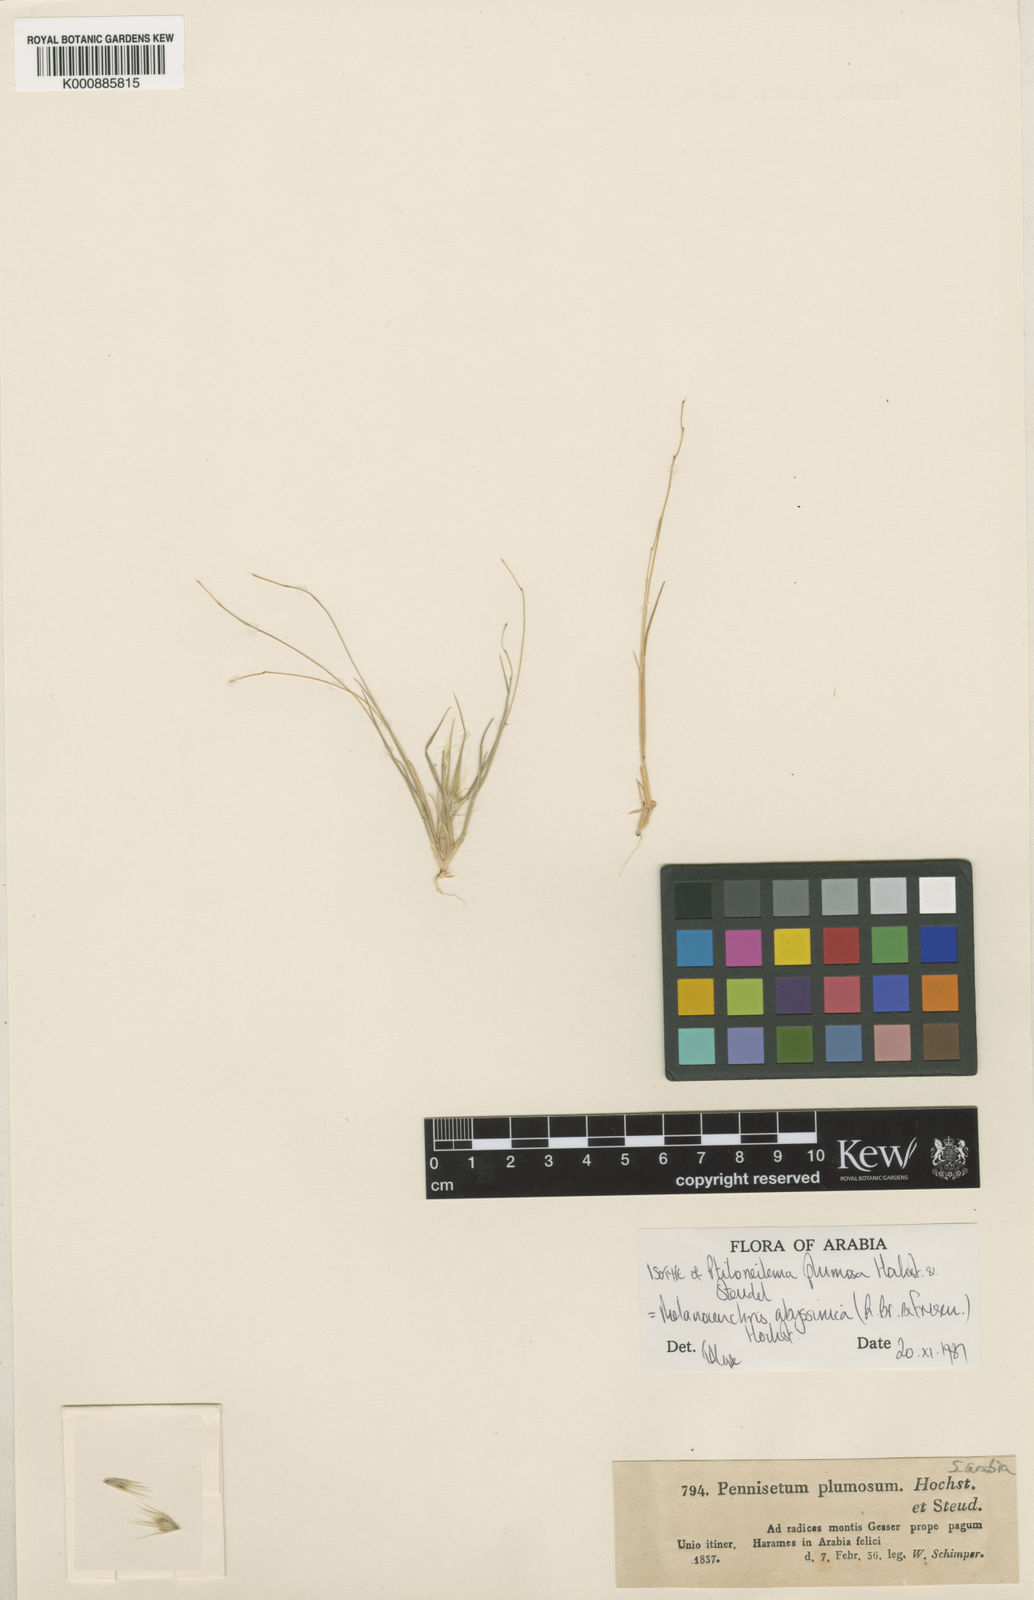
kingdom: Plantae
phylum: Tracheophyta
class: Liliopsida
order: Poales
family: Poaceae
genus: Melanocenchris
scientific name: Melanocenchris abyssinica
